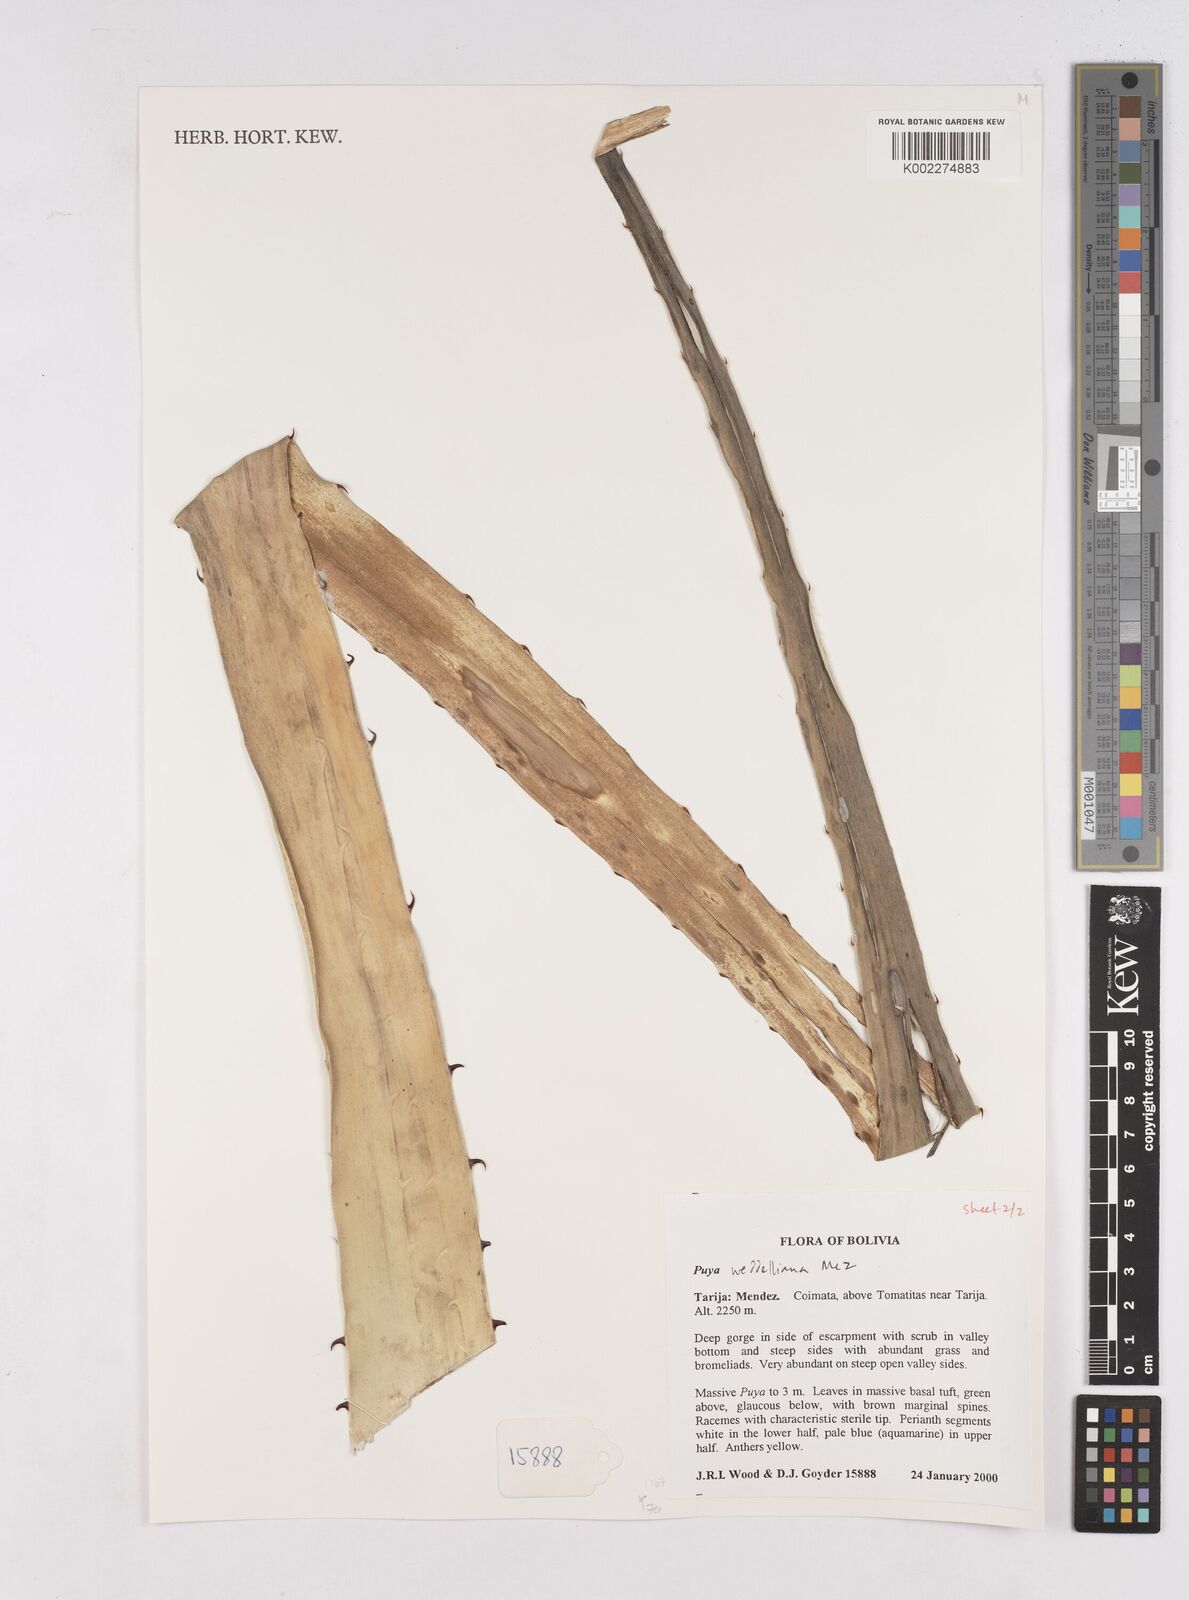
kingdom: Plantae
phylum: Tracheophyta
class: Liliopsida
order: Poales
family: Bromeliaceae
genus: Puya
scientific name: Puya weddelliana
